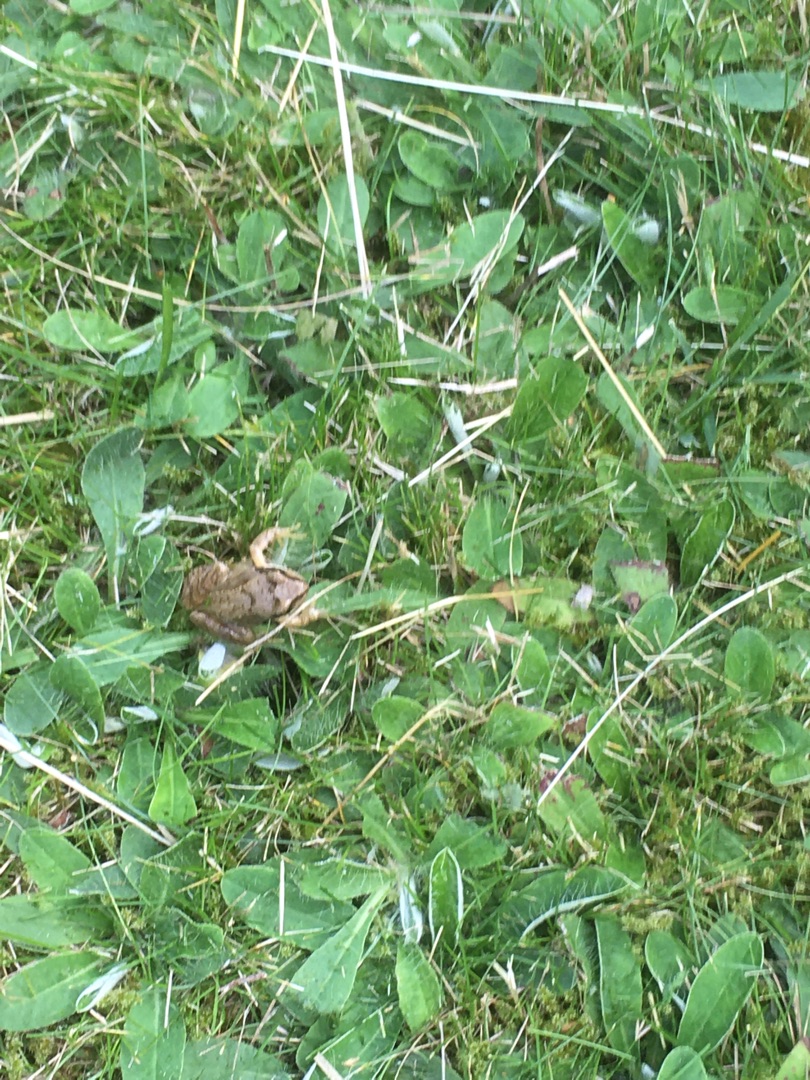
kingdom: Animalia
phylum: Chordata
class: Amphibia
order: Anura
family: Ranidae
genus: Rana
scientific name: Rana temporaria
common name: Butsnudet frø
